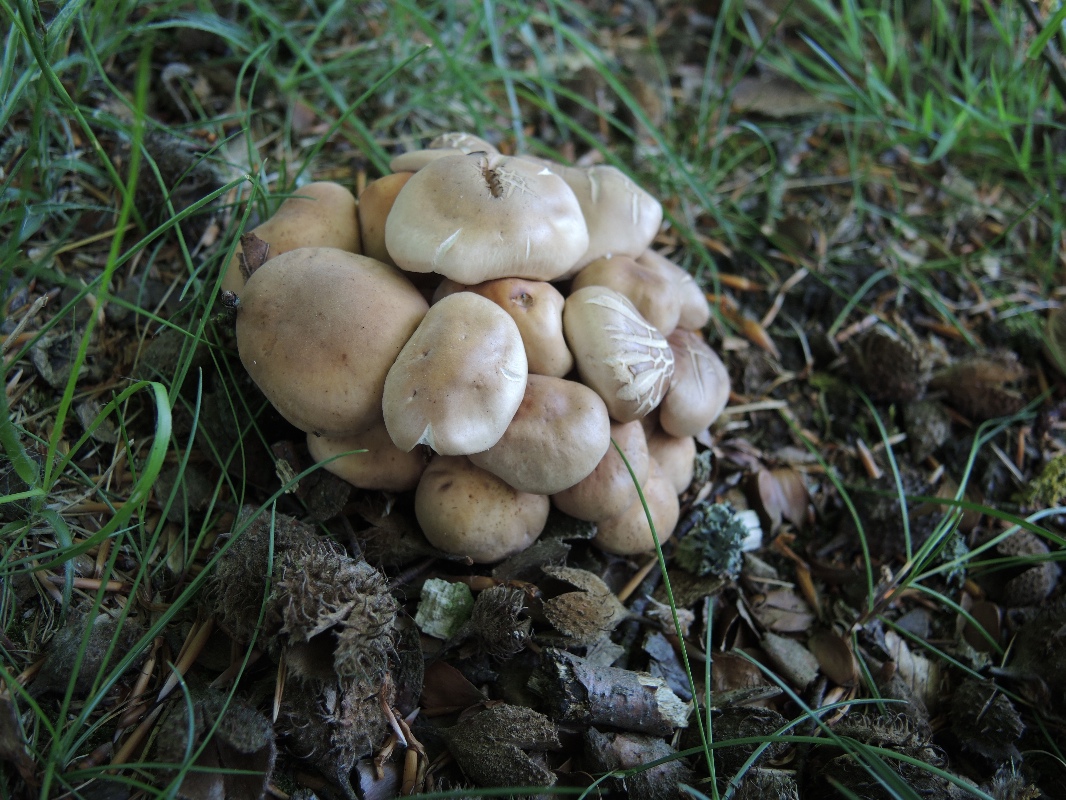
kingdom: Fungi
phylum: Basidiomycota
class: Agaricomycetes
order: Agaricales
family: Omphalotaceae
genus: Gymnopus
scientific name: Gymnopus fusipes
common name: tenstokket fladhat
